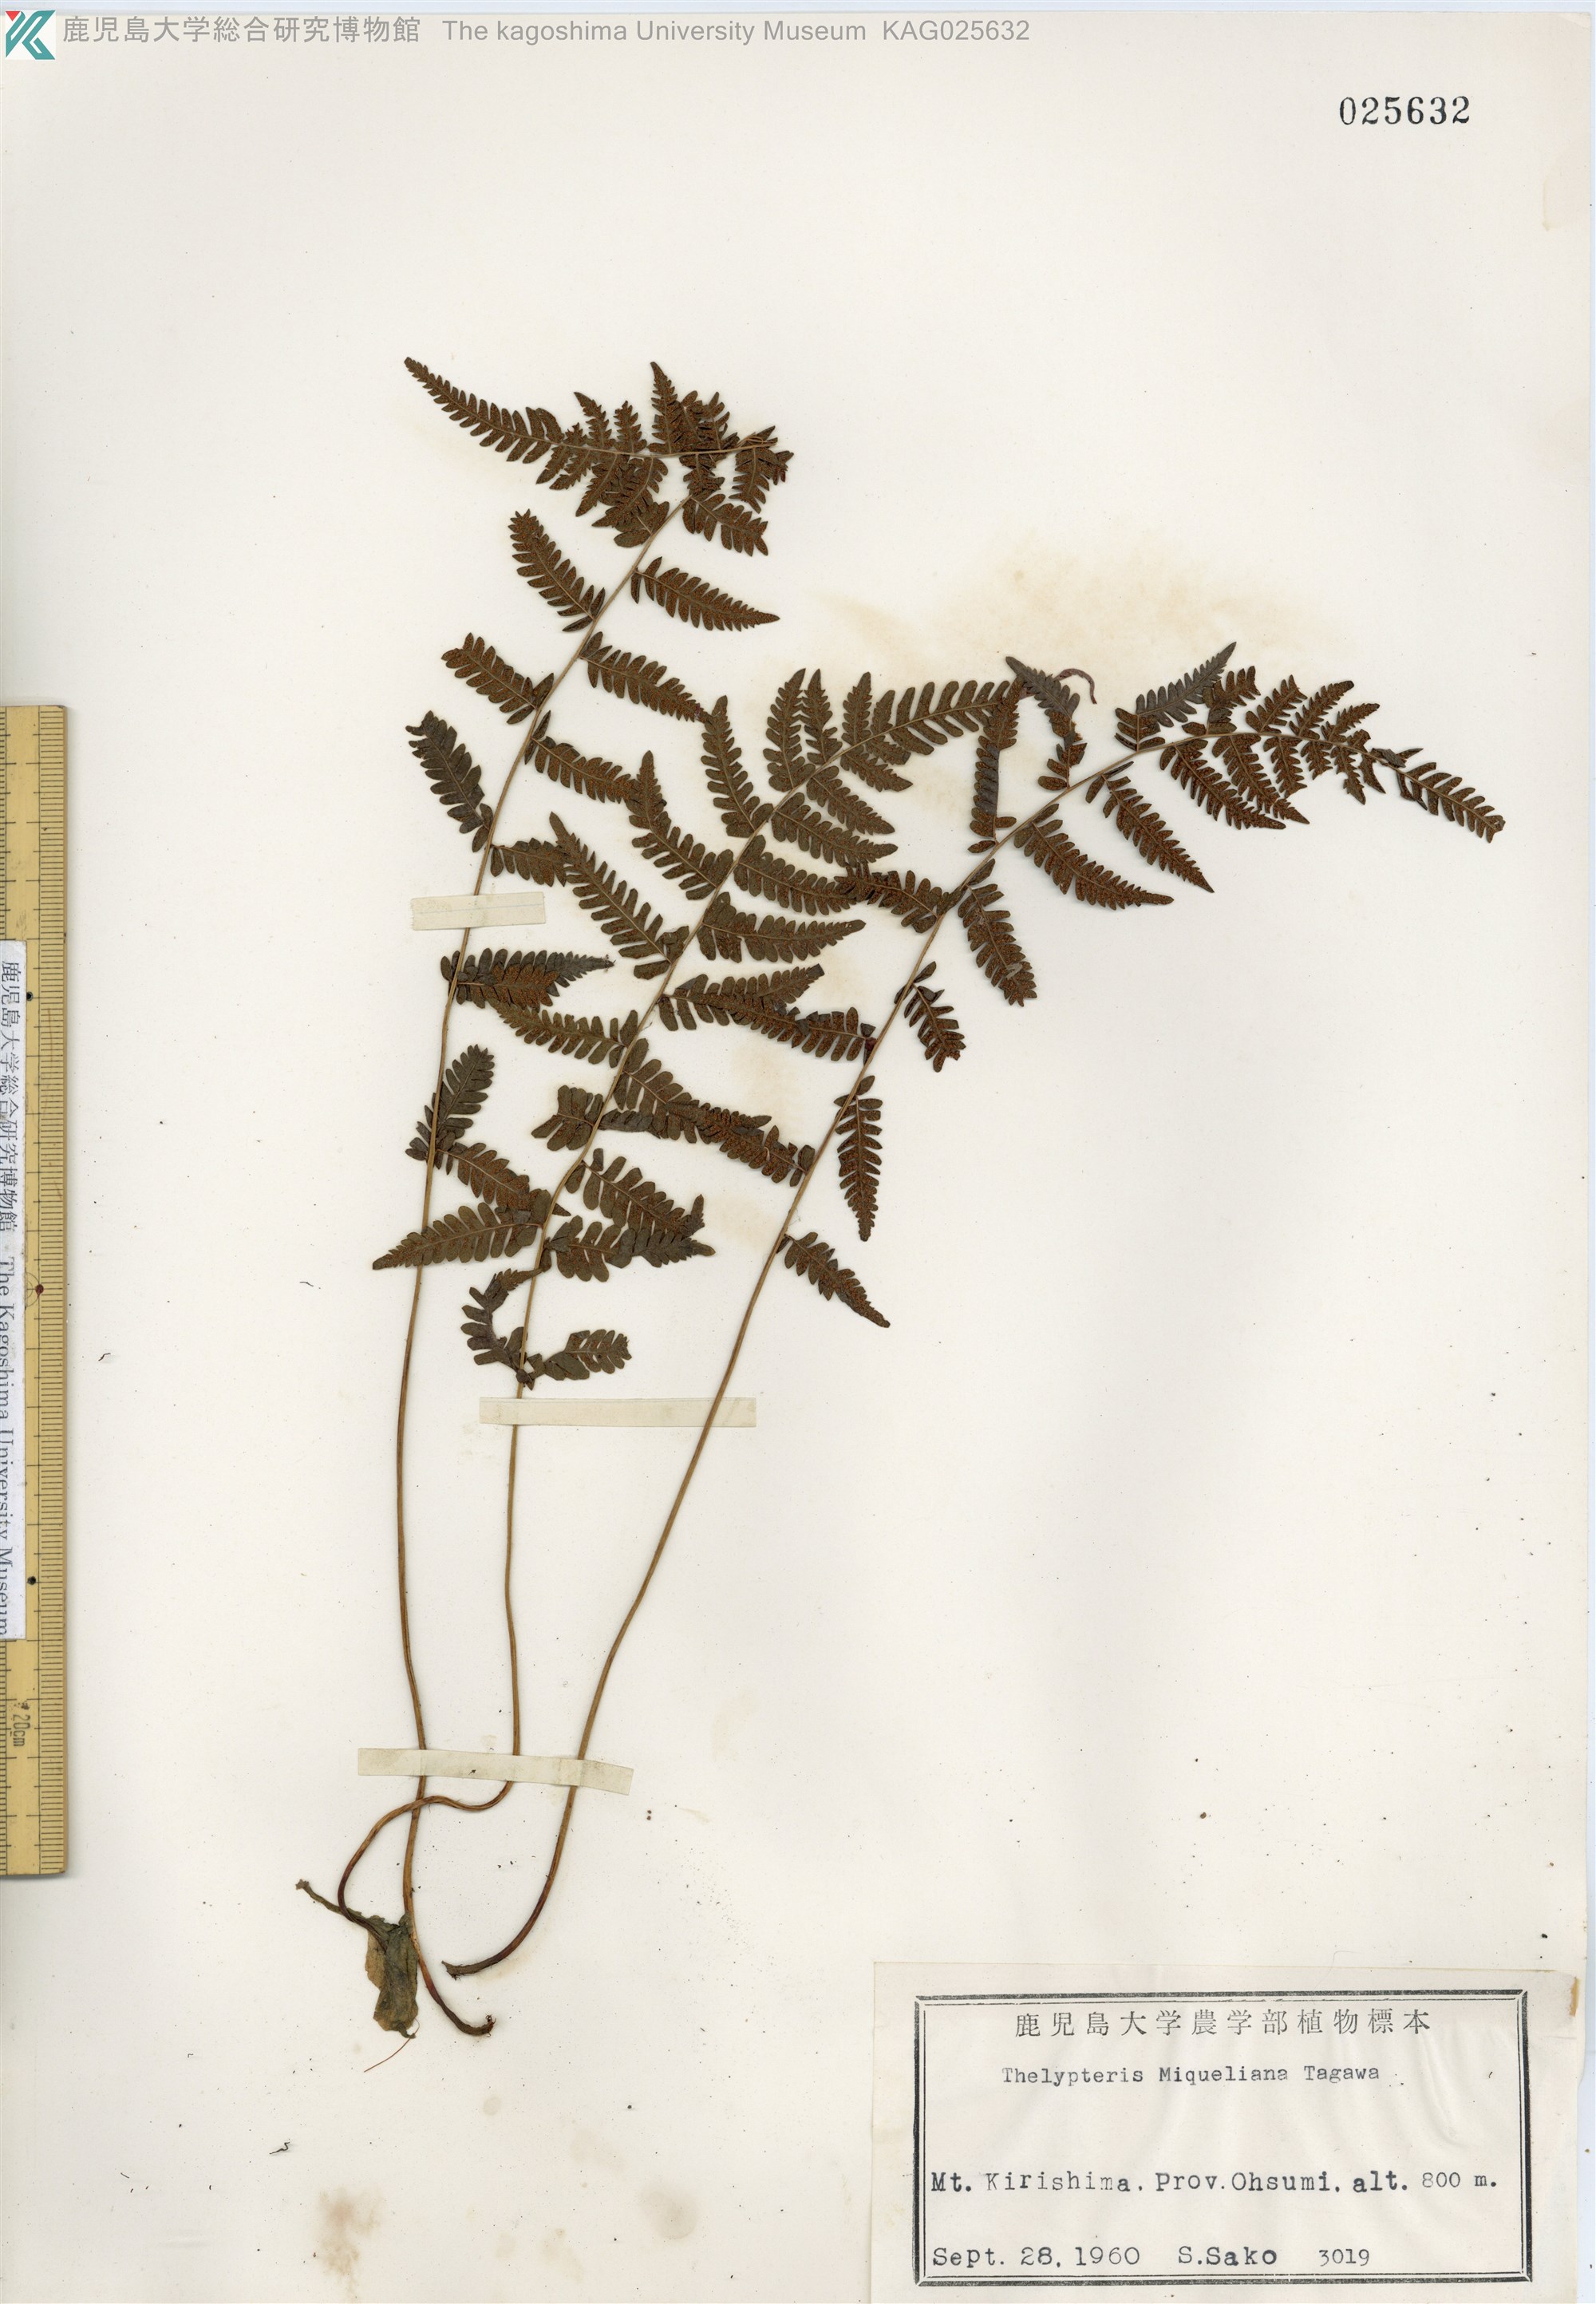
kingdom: Plantae
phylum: Tracheophyta
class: Polypodiopsida
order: Polypodiales
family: Thelypteridaceae
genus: Amauropelta
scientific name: Amauropelta angustifrons
